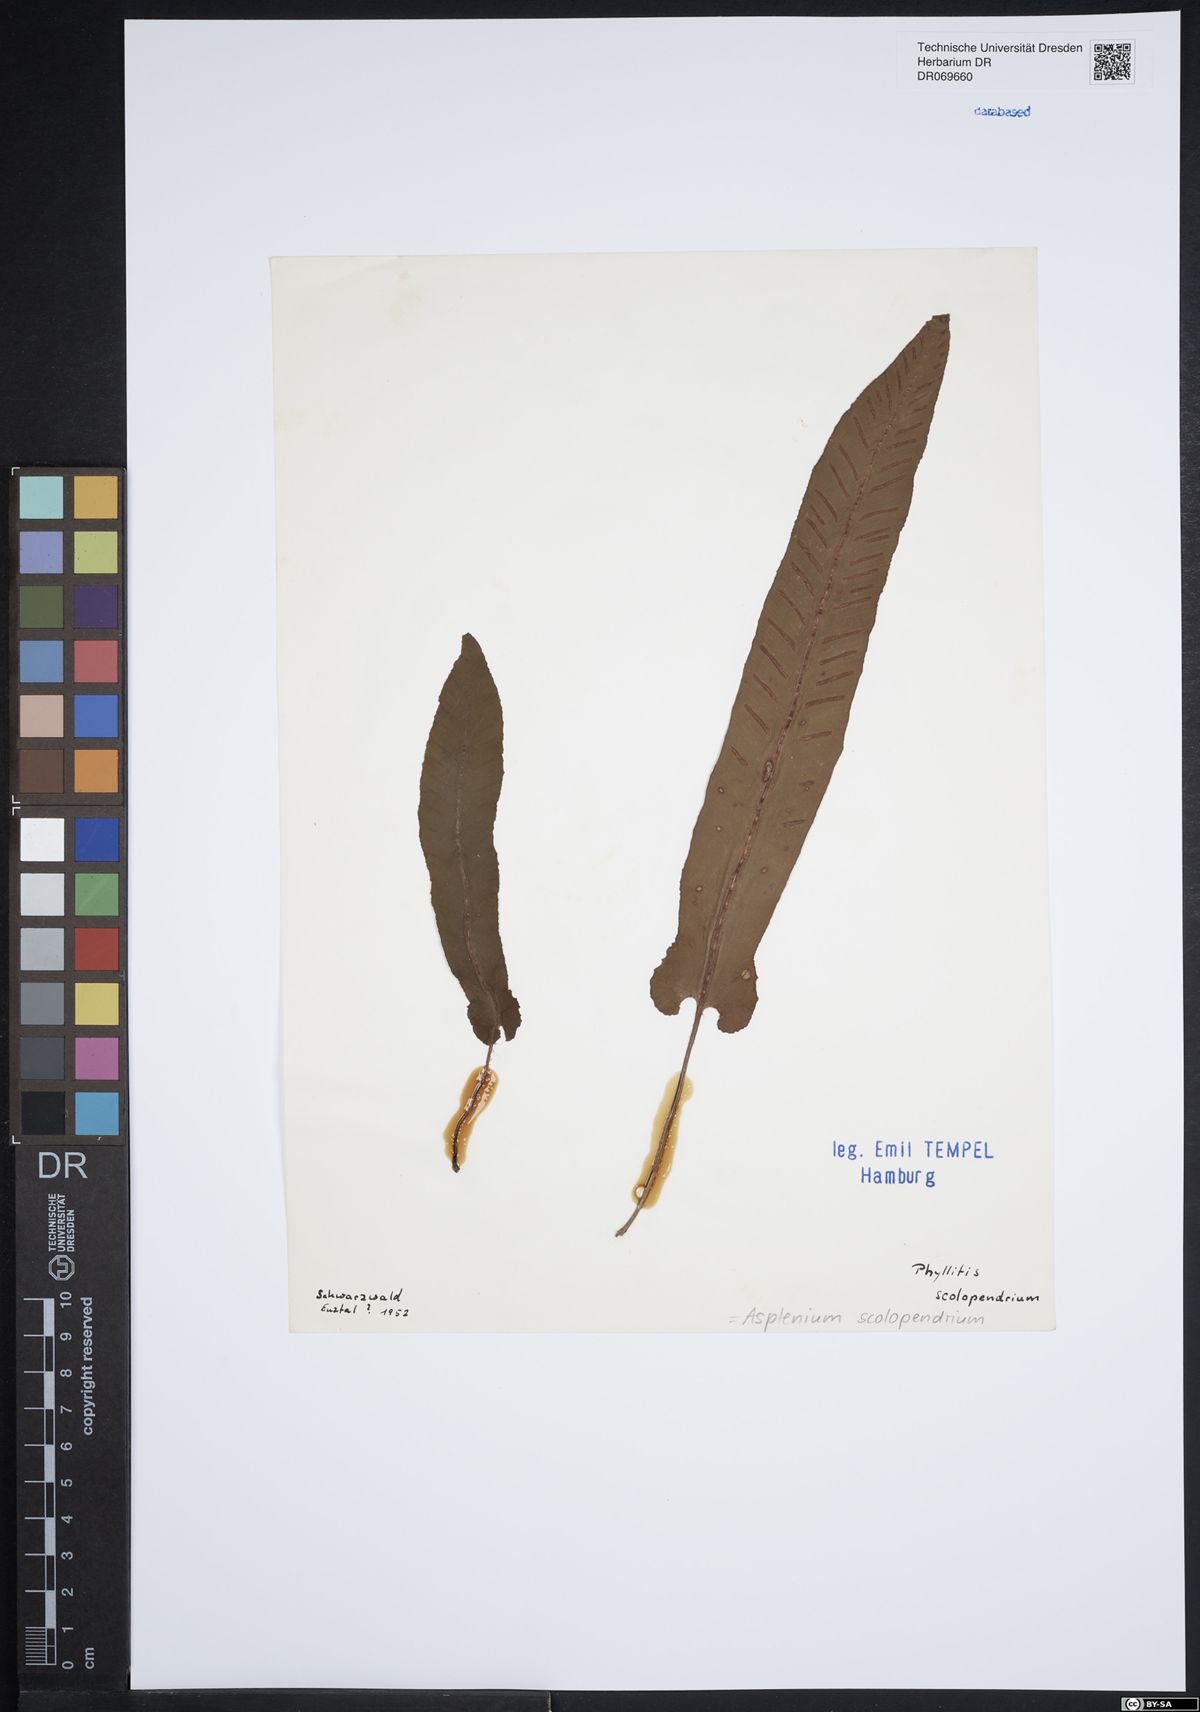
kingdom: Plantae
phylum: Tracheophyta
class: Polypodiopsida
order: Polypodiales
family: Aspleniaceae
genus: Asplenium
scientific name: Asplenium scolopendrium
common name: Hart's-tongue fern
